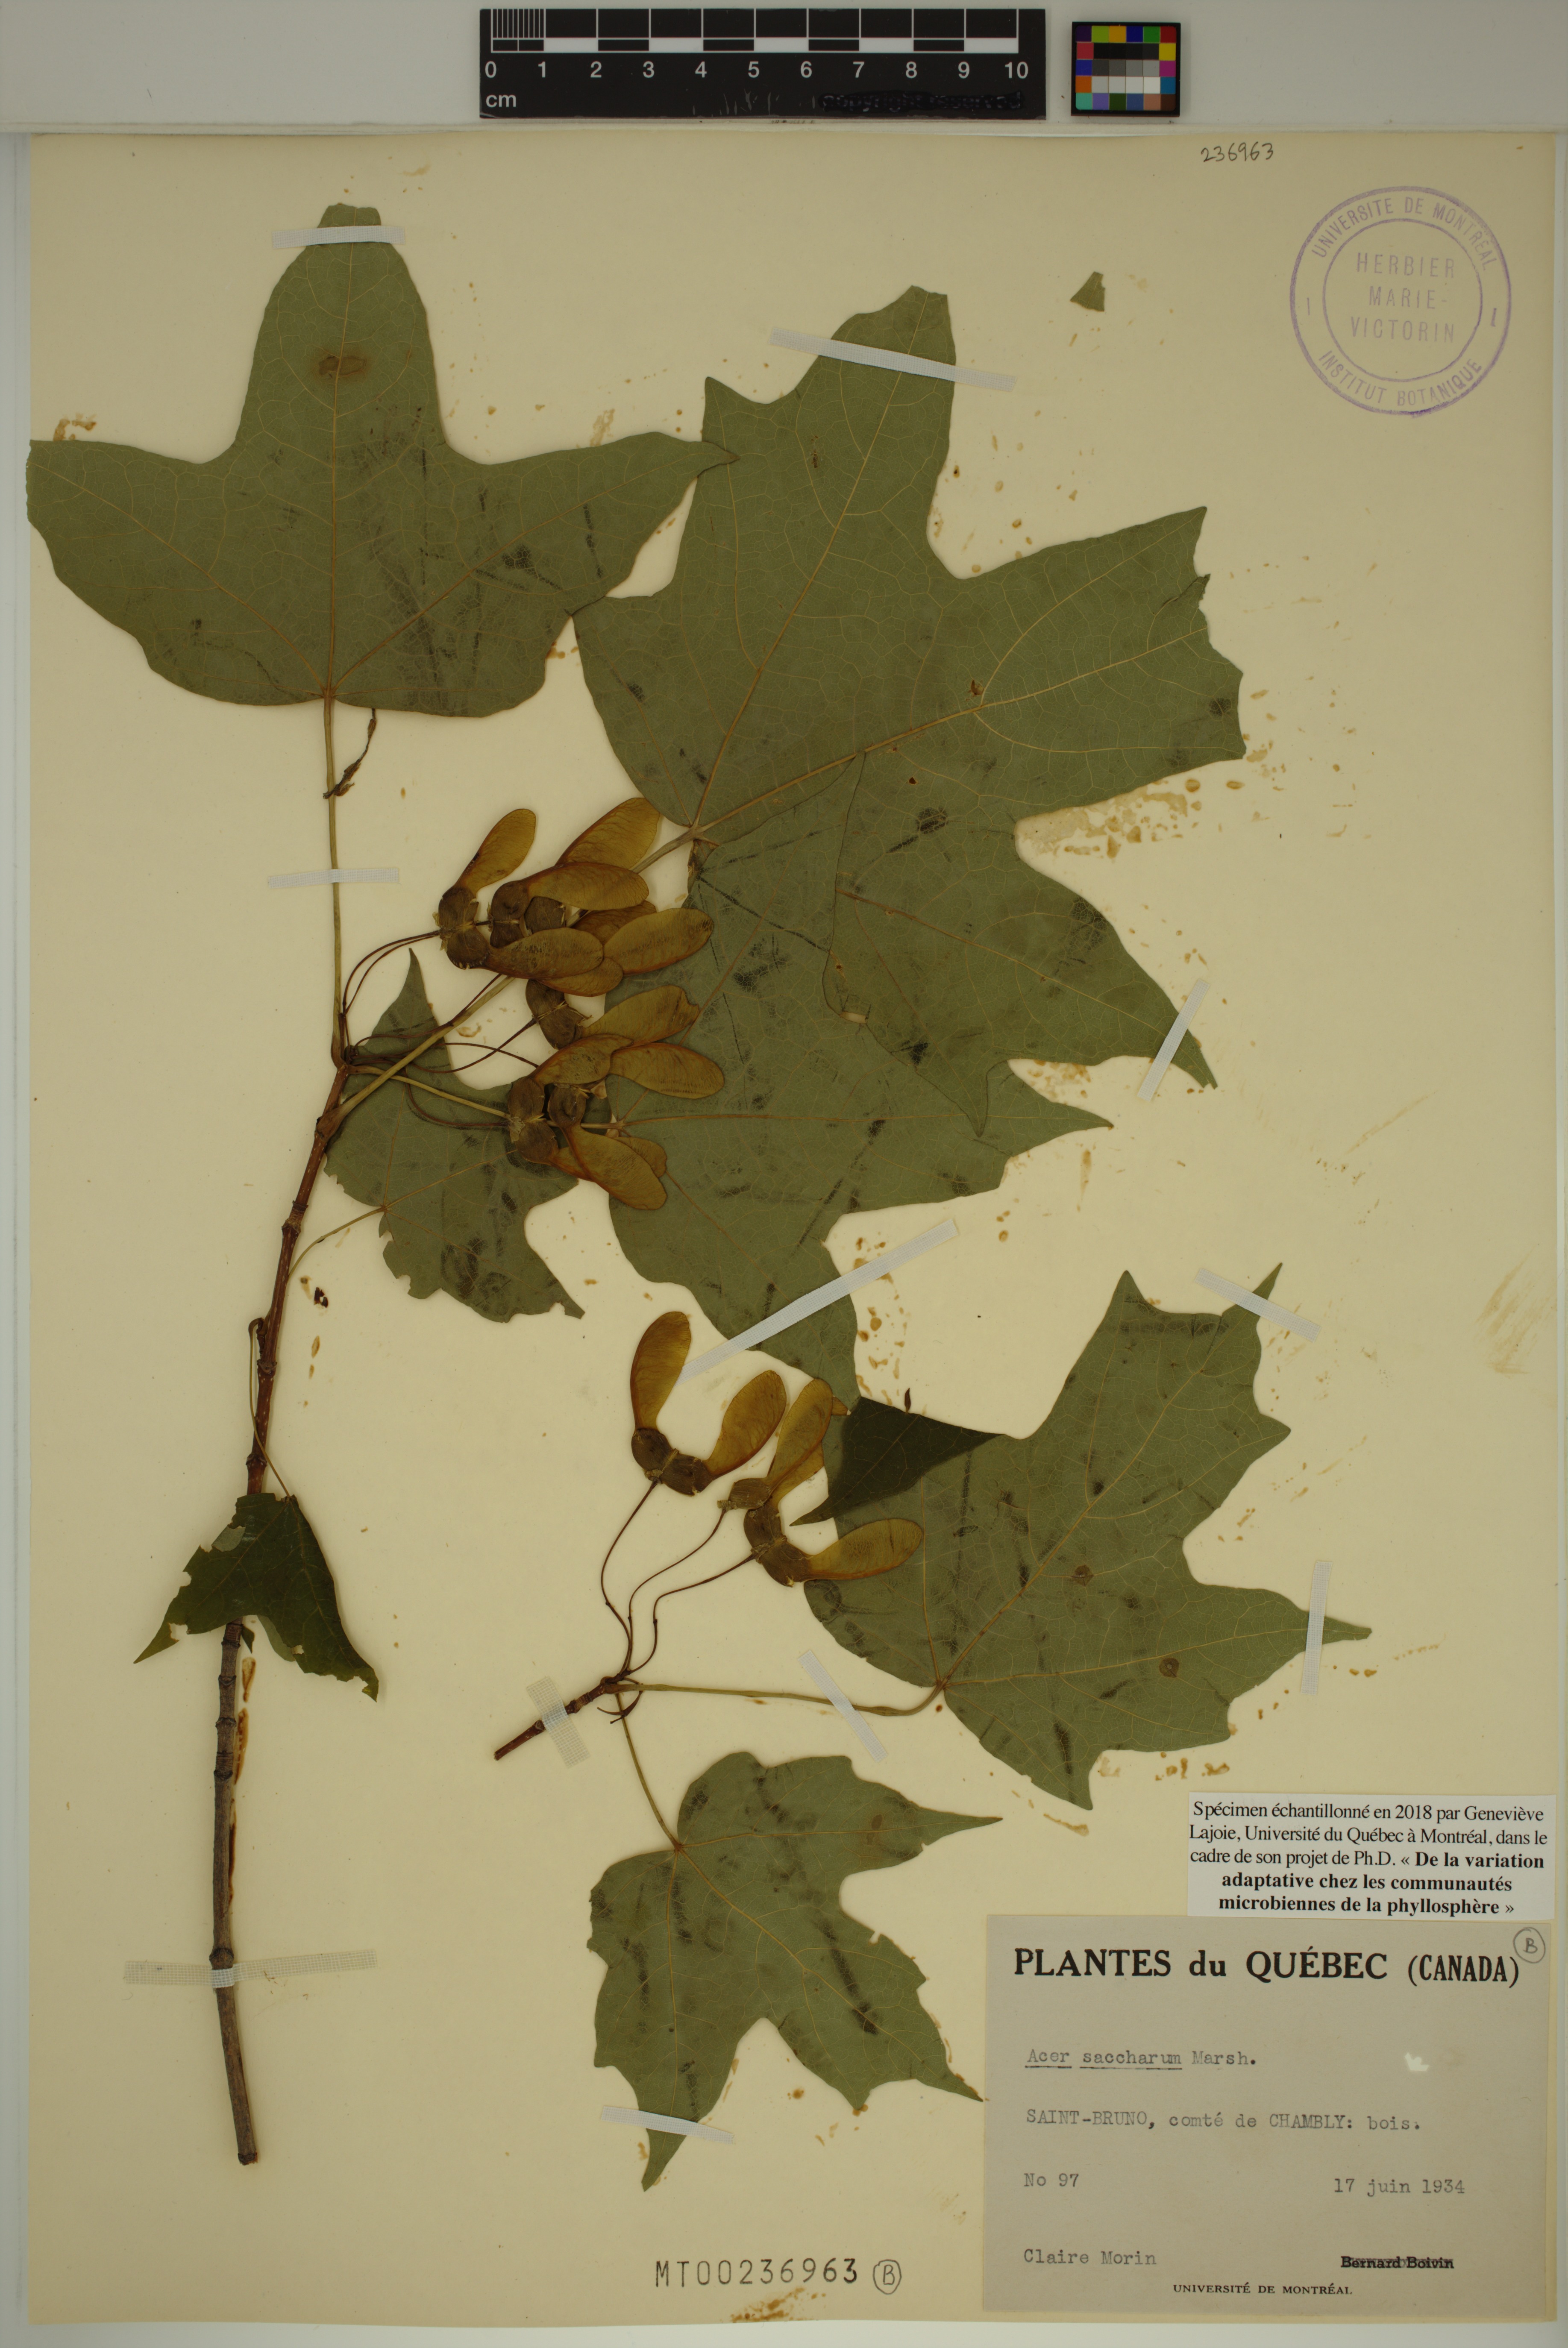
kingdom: Plantae
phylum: Tracheophyta
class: Magnoliopsida
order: Sapindales
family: Sapindaceae
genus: Acer
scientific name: Acer saccharum
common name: Sugar maple
